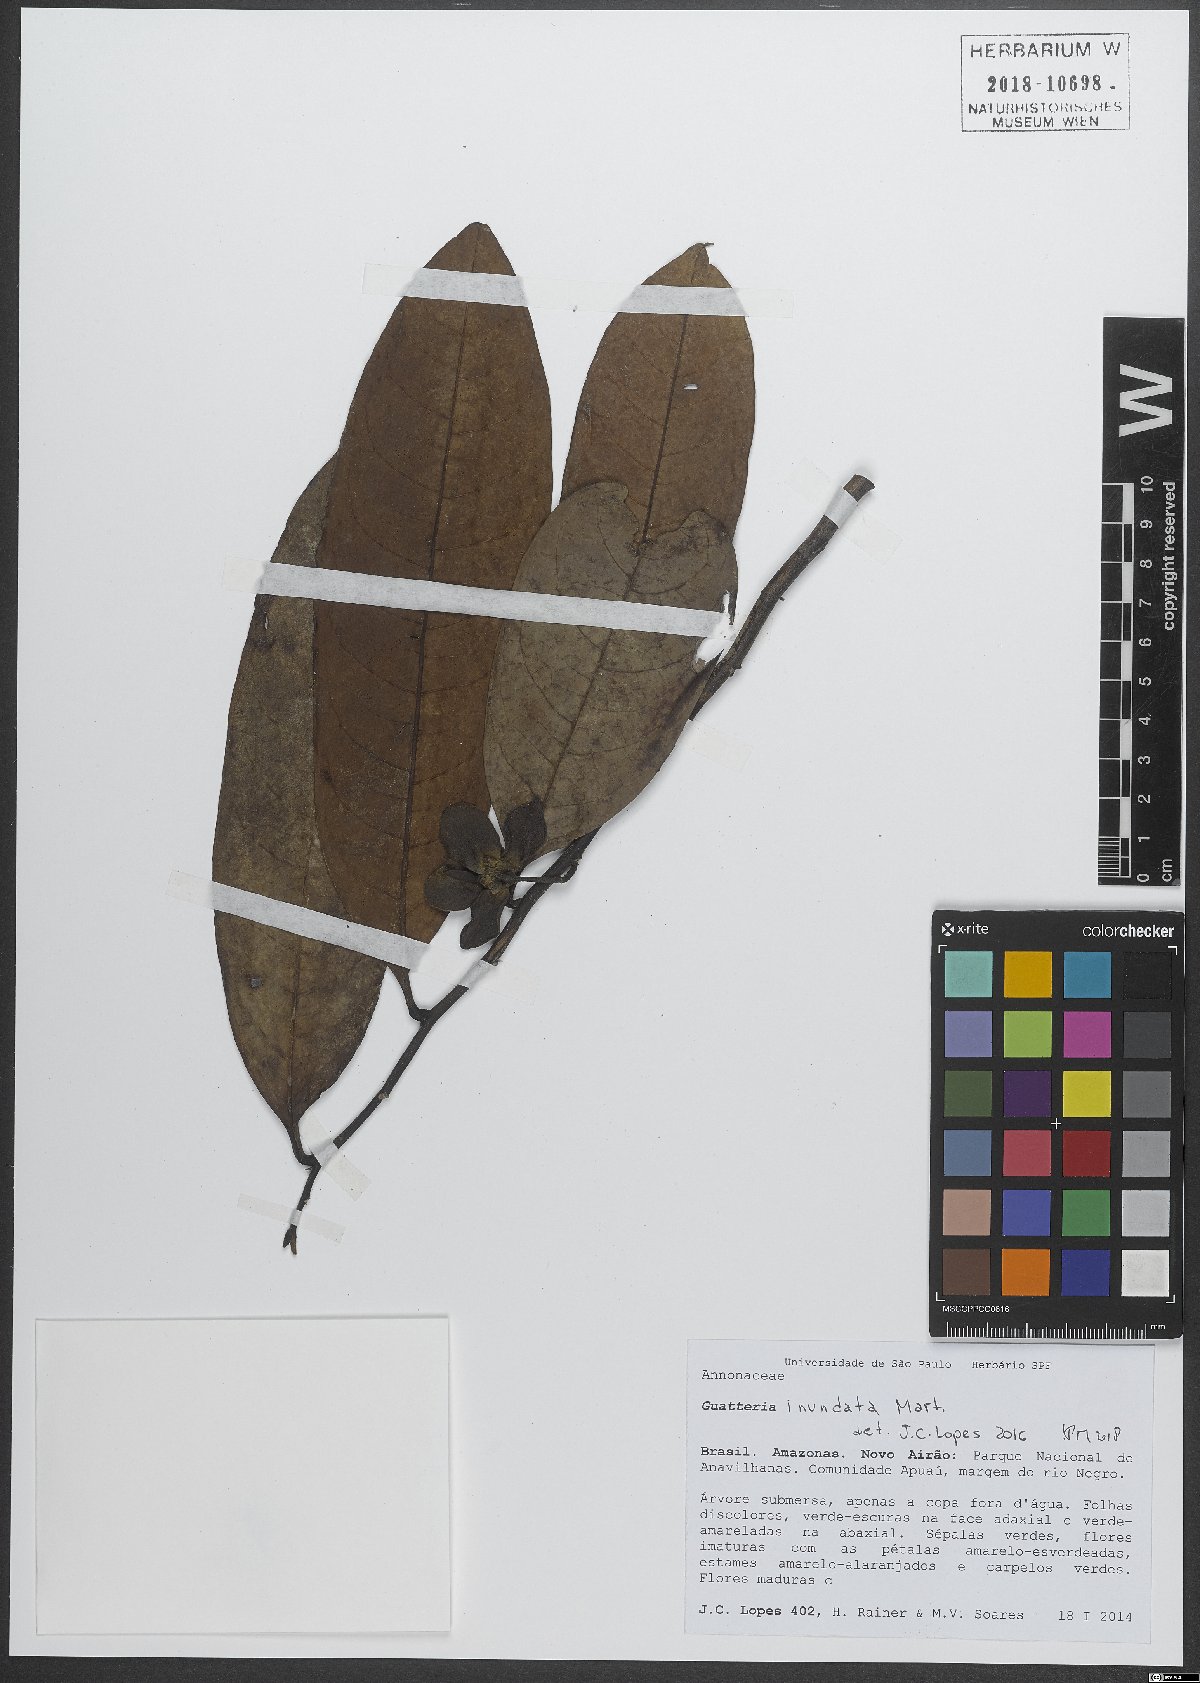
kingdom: Plantae
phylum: Tracheophyta
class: Magnoliopsida
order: Magnoliales
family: Annonaceae
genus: Guatteria
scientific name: Guatteria inundata
